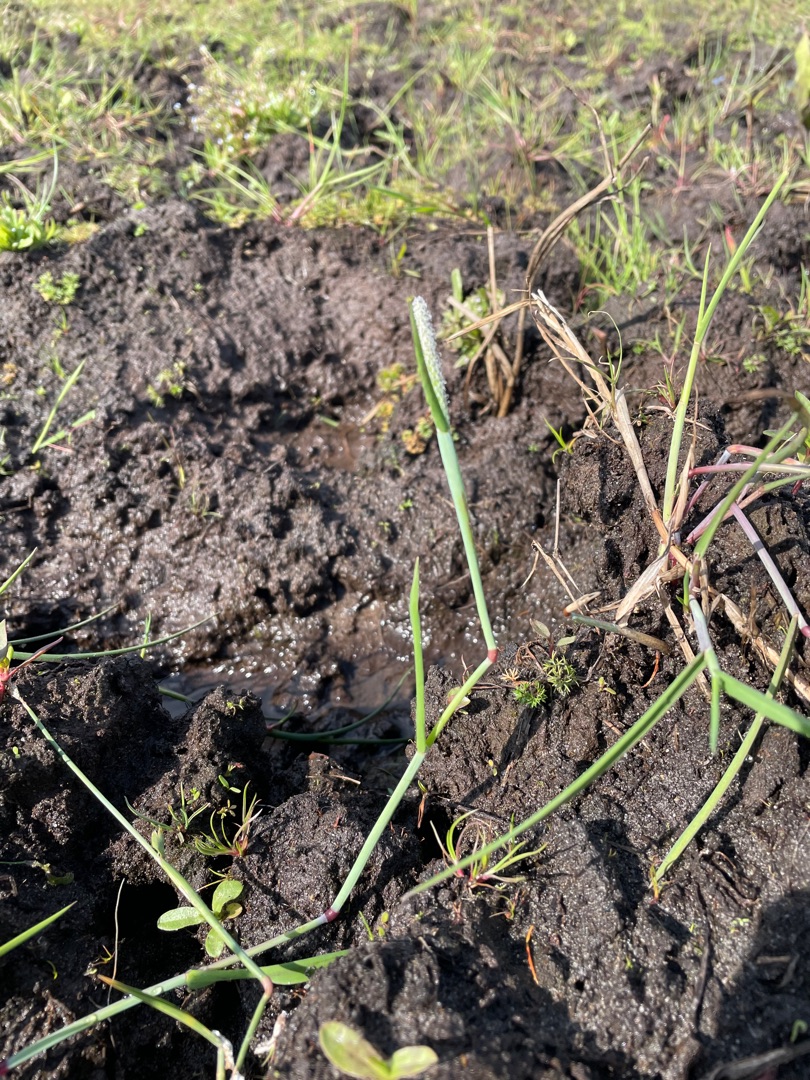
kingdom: Plantae
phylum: Tracheophyta
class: Liliopsida
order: Poales
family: Poaceae
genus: Alopecurus
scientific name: Alopecurus aequalis
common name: Gul rævehale
